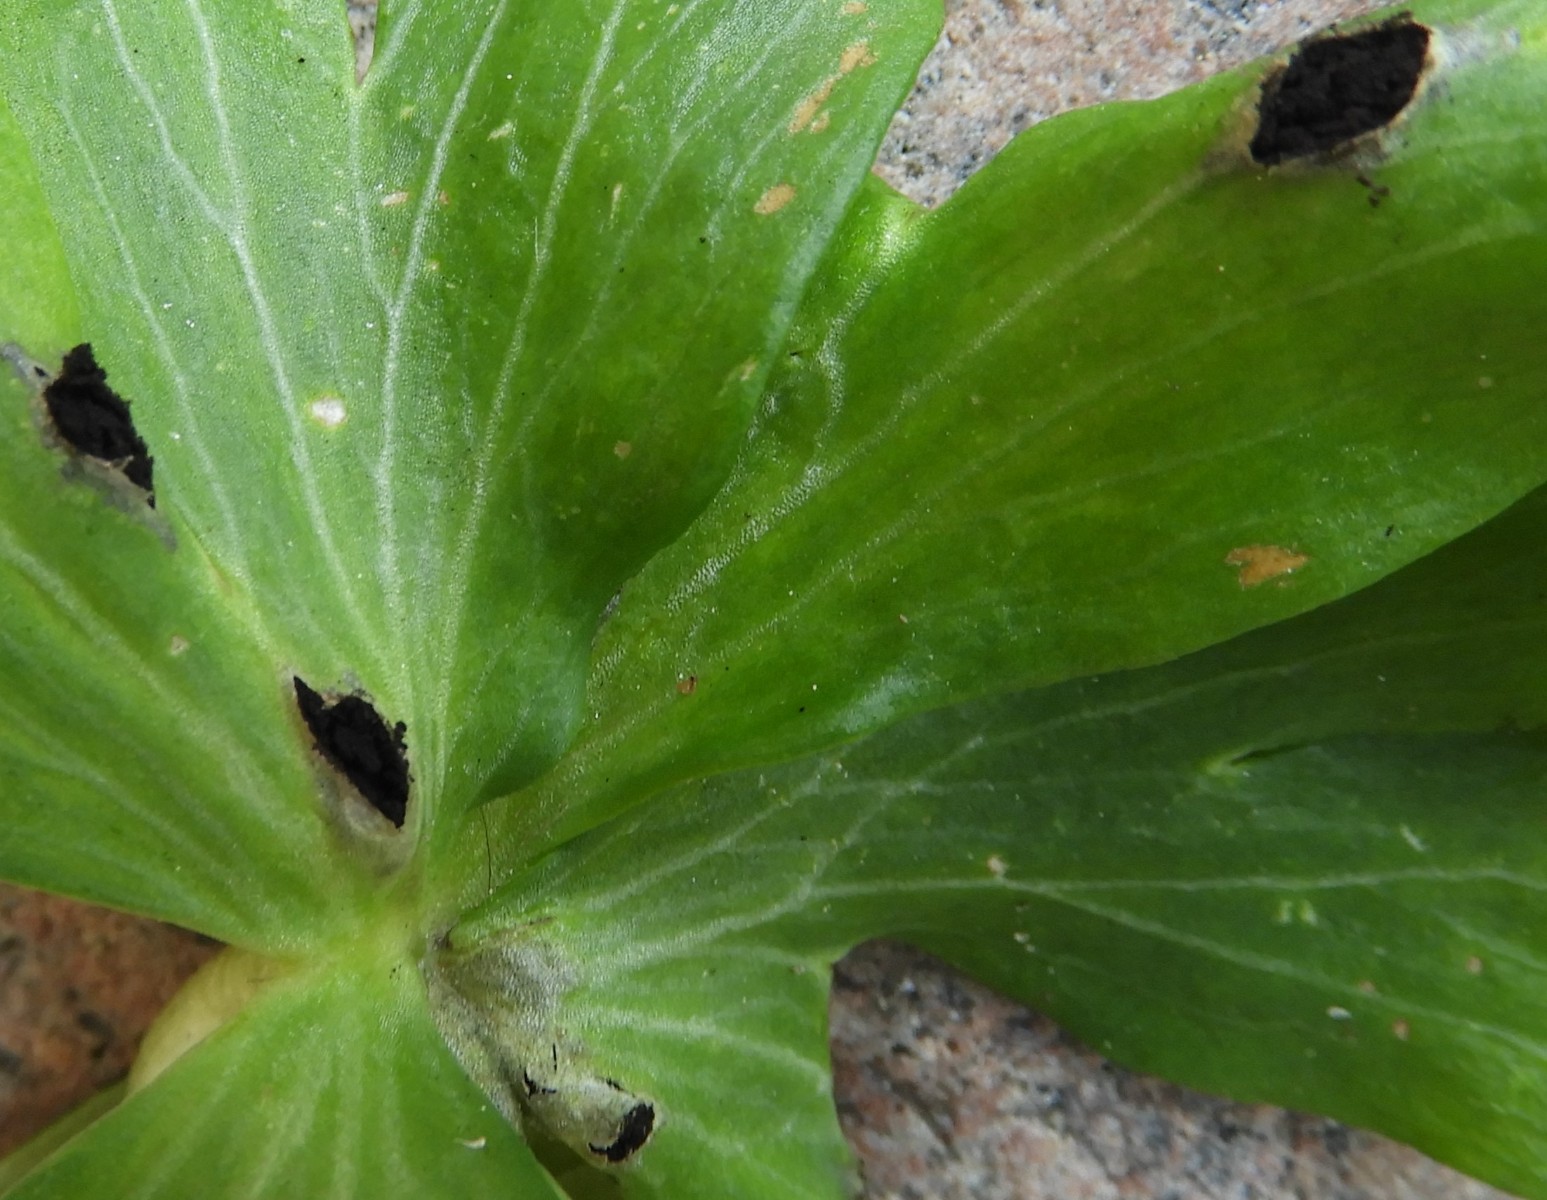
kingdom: Fungi
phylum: Basidiomycota
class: Ustilaginomycetes
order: Urocystidales
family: Urocystidaceae
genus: Urocystis
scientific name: Urocystis eranthidis
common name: erantis-brand
